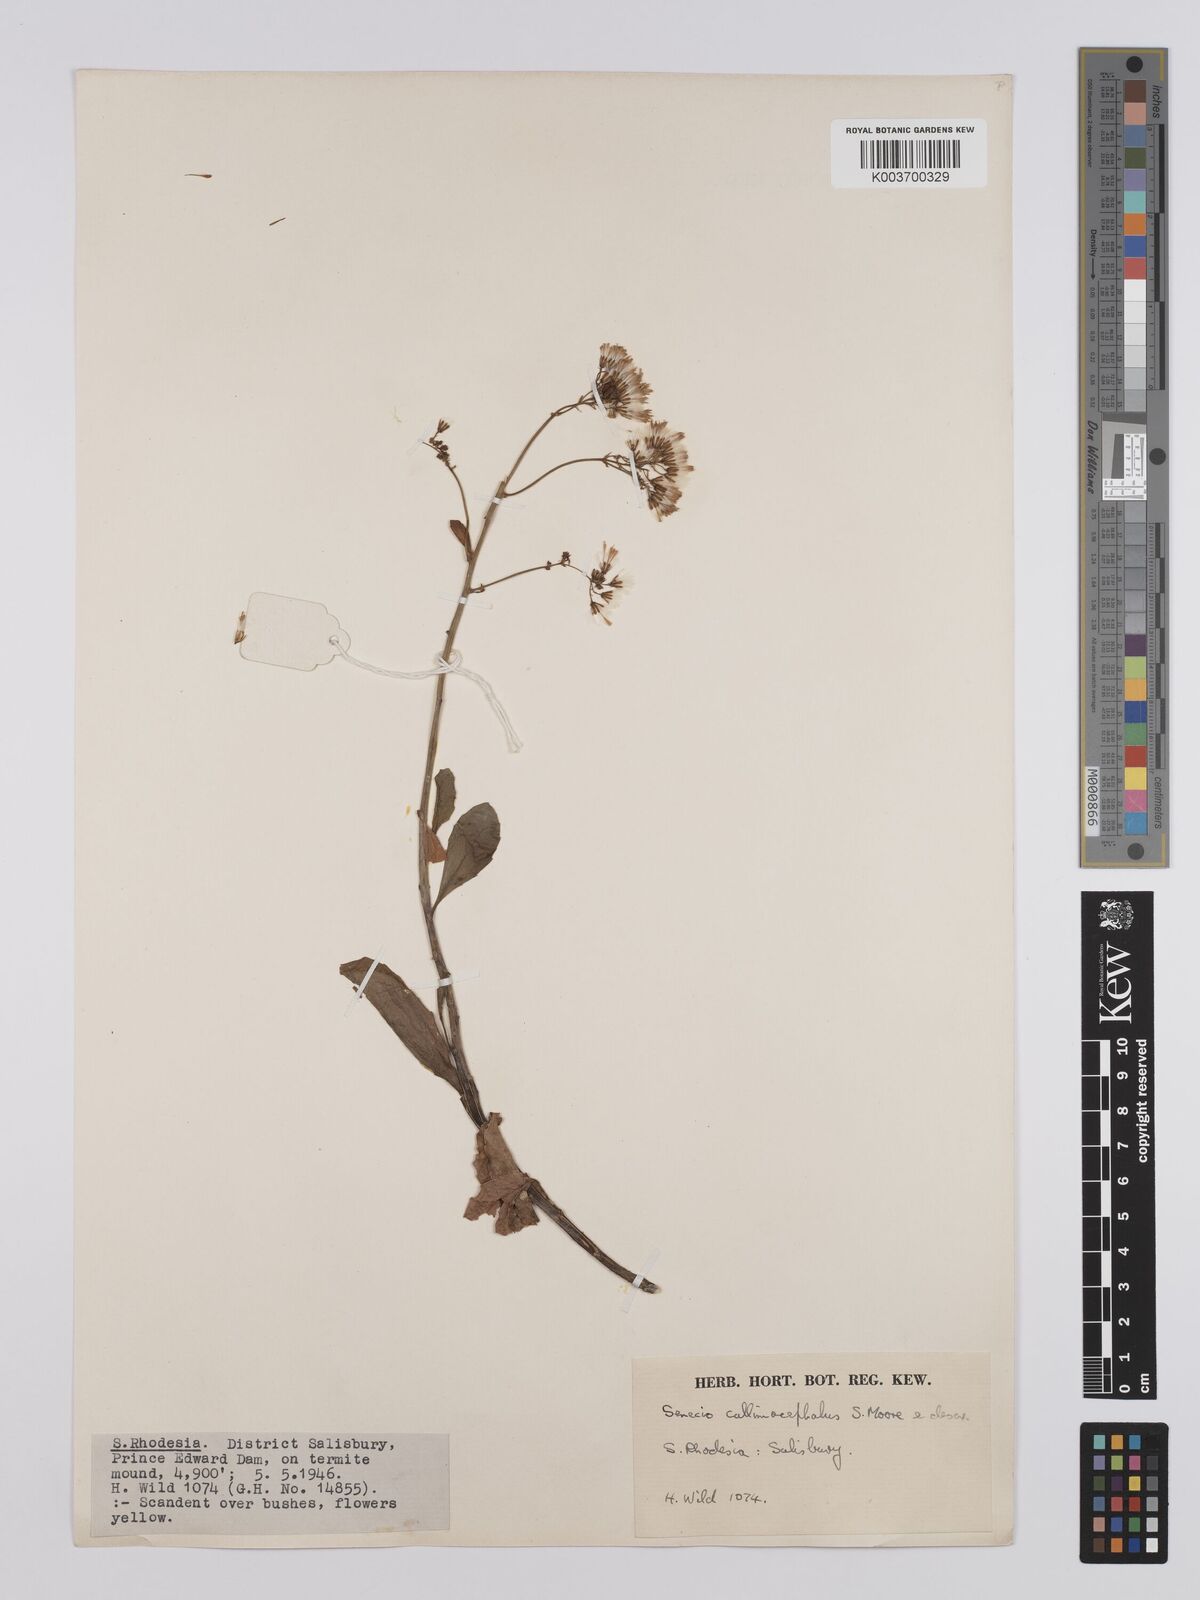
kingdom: Plantae
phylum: Tracheophyta
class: Magnoliopsida
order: Asterales
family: Asteraceae
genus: Senecio
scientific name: Senecio brachypodus
